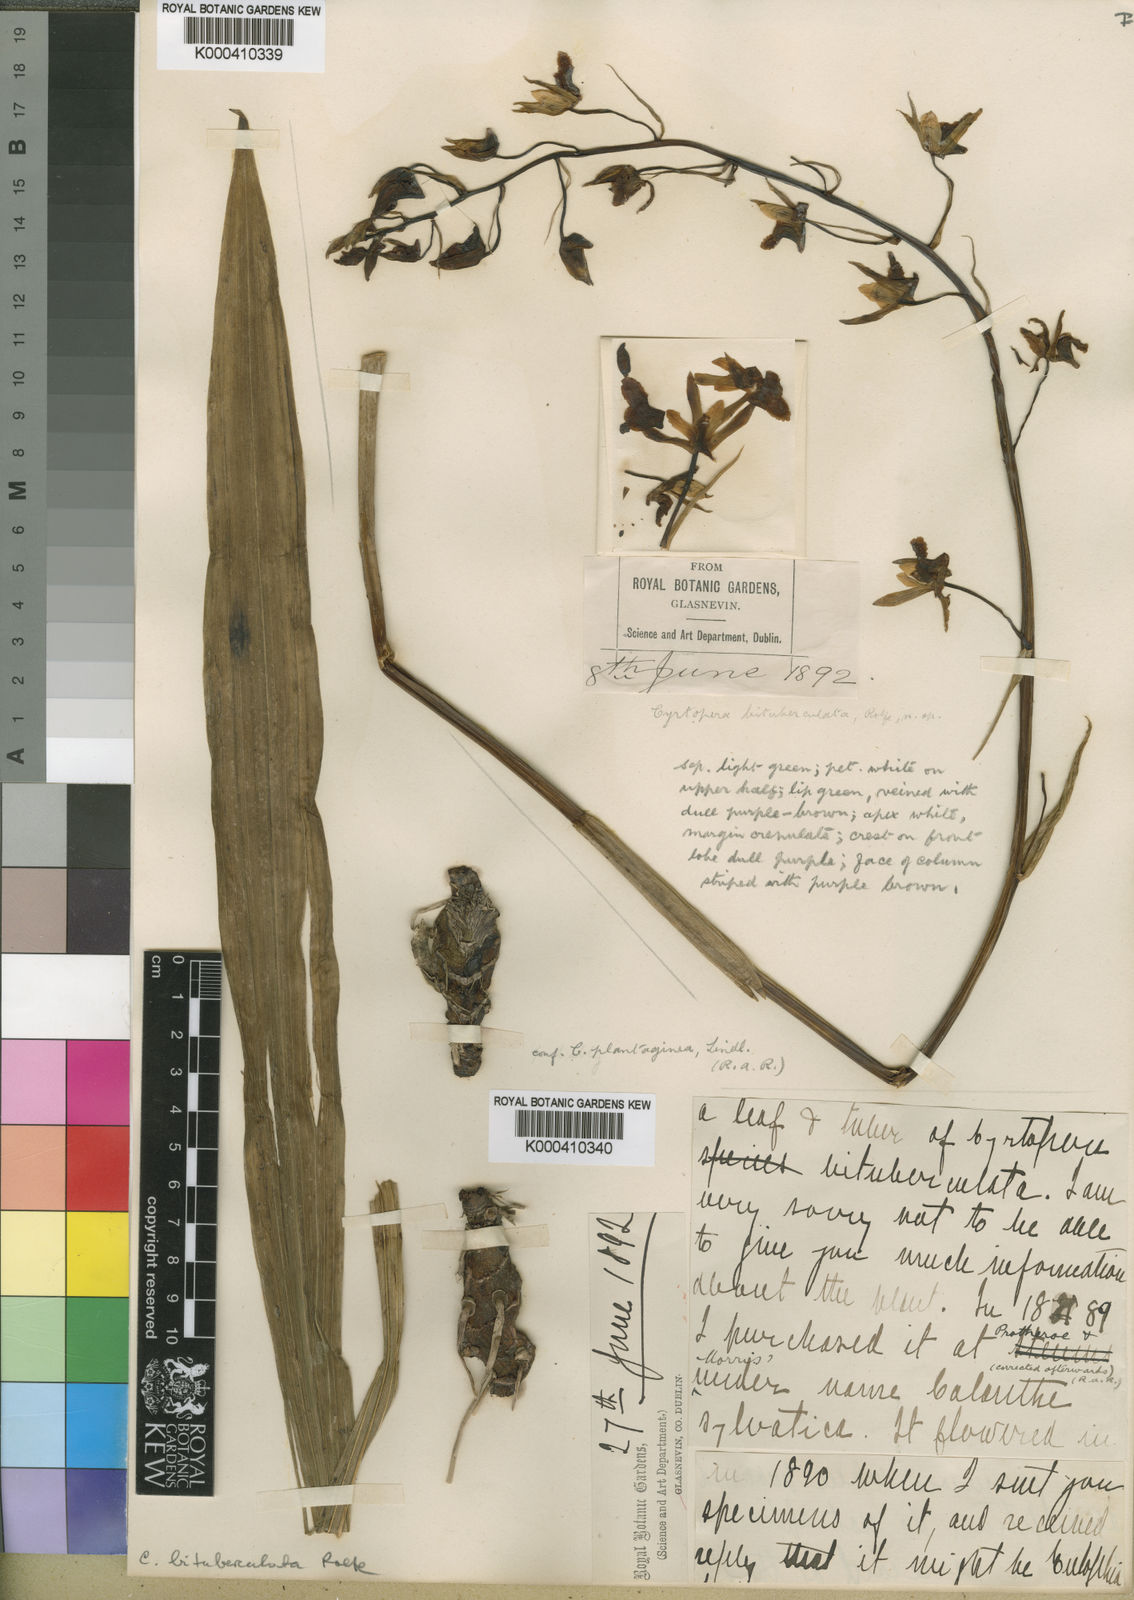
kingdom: Plantae
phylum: Tracheophyta
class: Liliopsida
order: Asparagales
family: Orchidaceae
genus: Eulophia
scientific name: Eulophia
